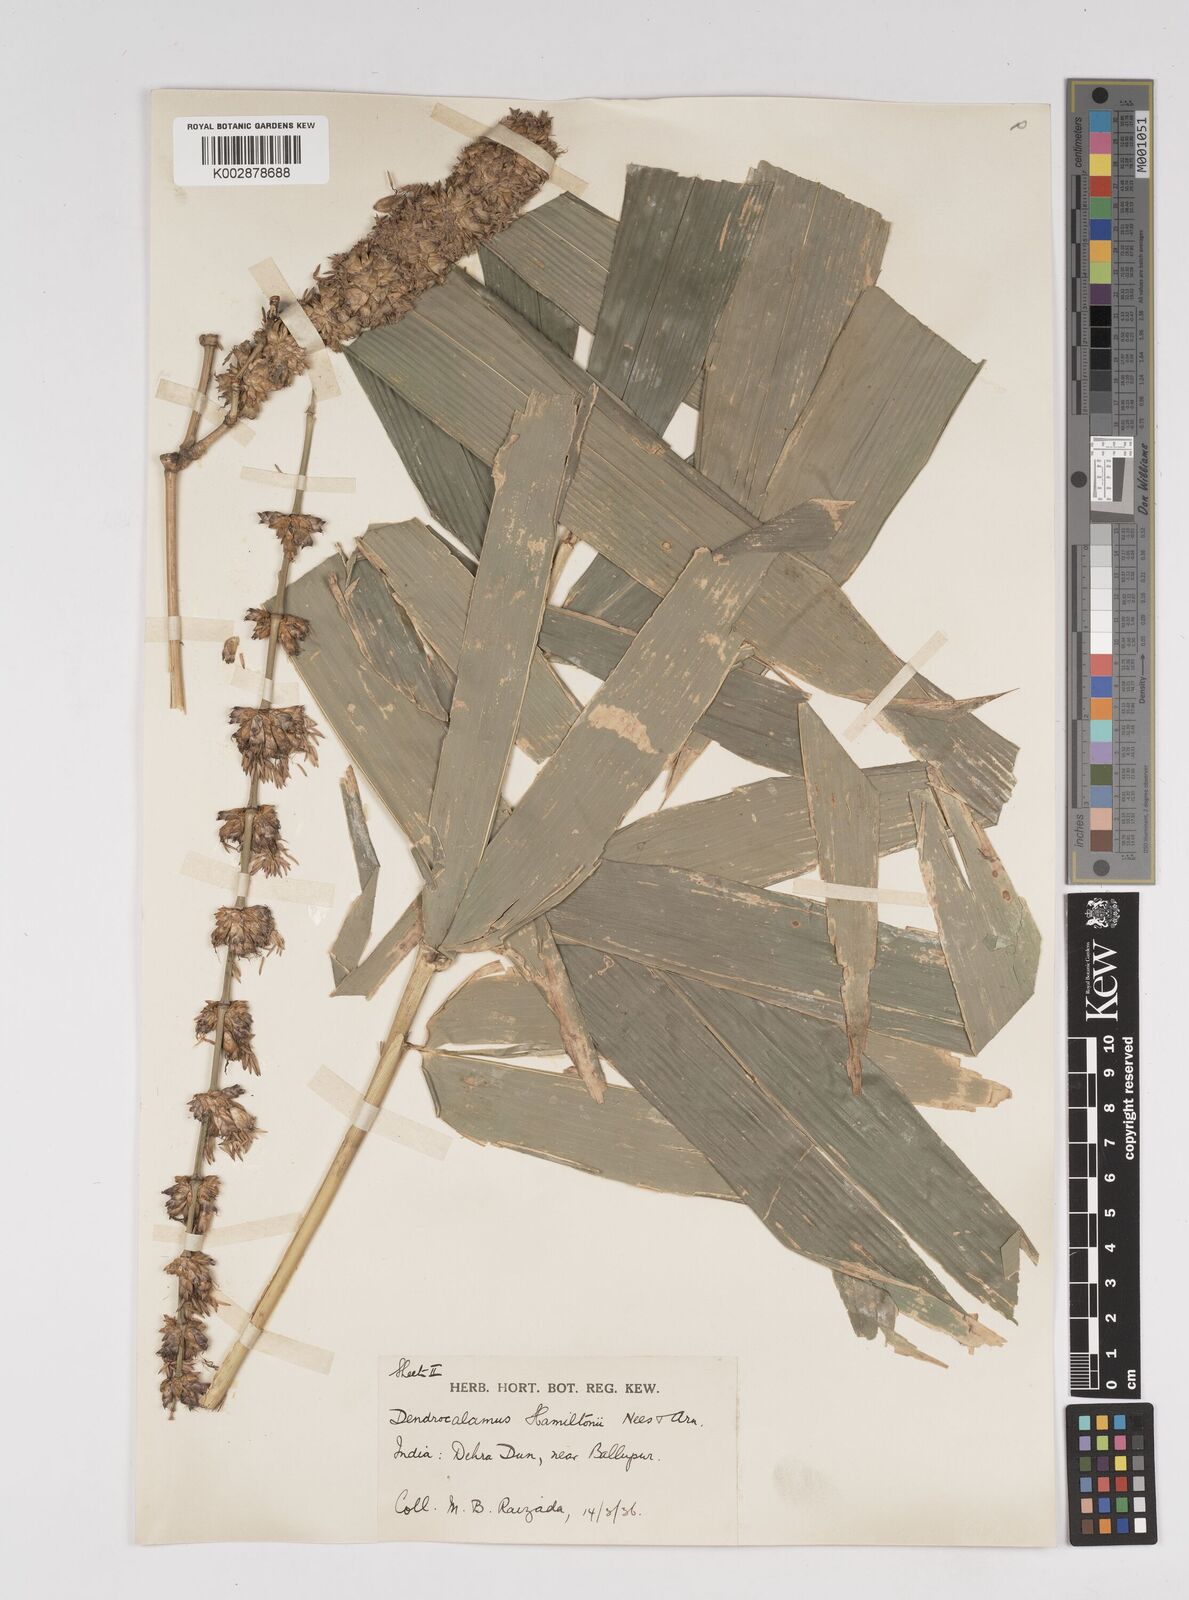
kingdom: Plantae
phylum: Tracheophyta
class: Liliopsida
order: Poales
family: Poaceae
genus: Dendrocalamus
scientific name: Dendrocalamus hamiltonii
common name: Tama bamboo
